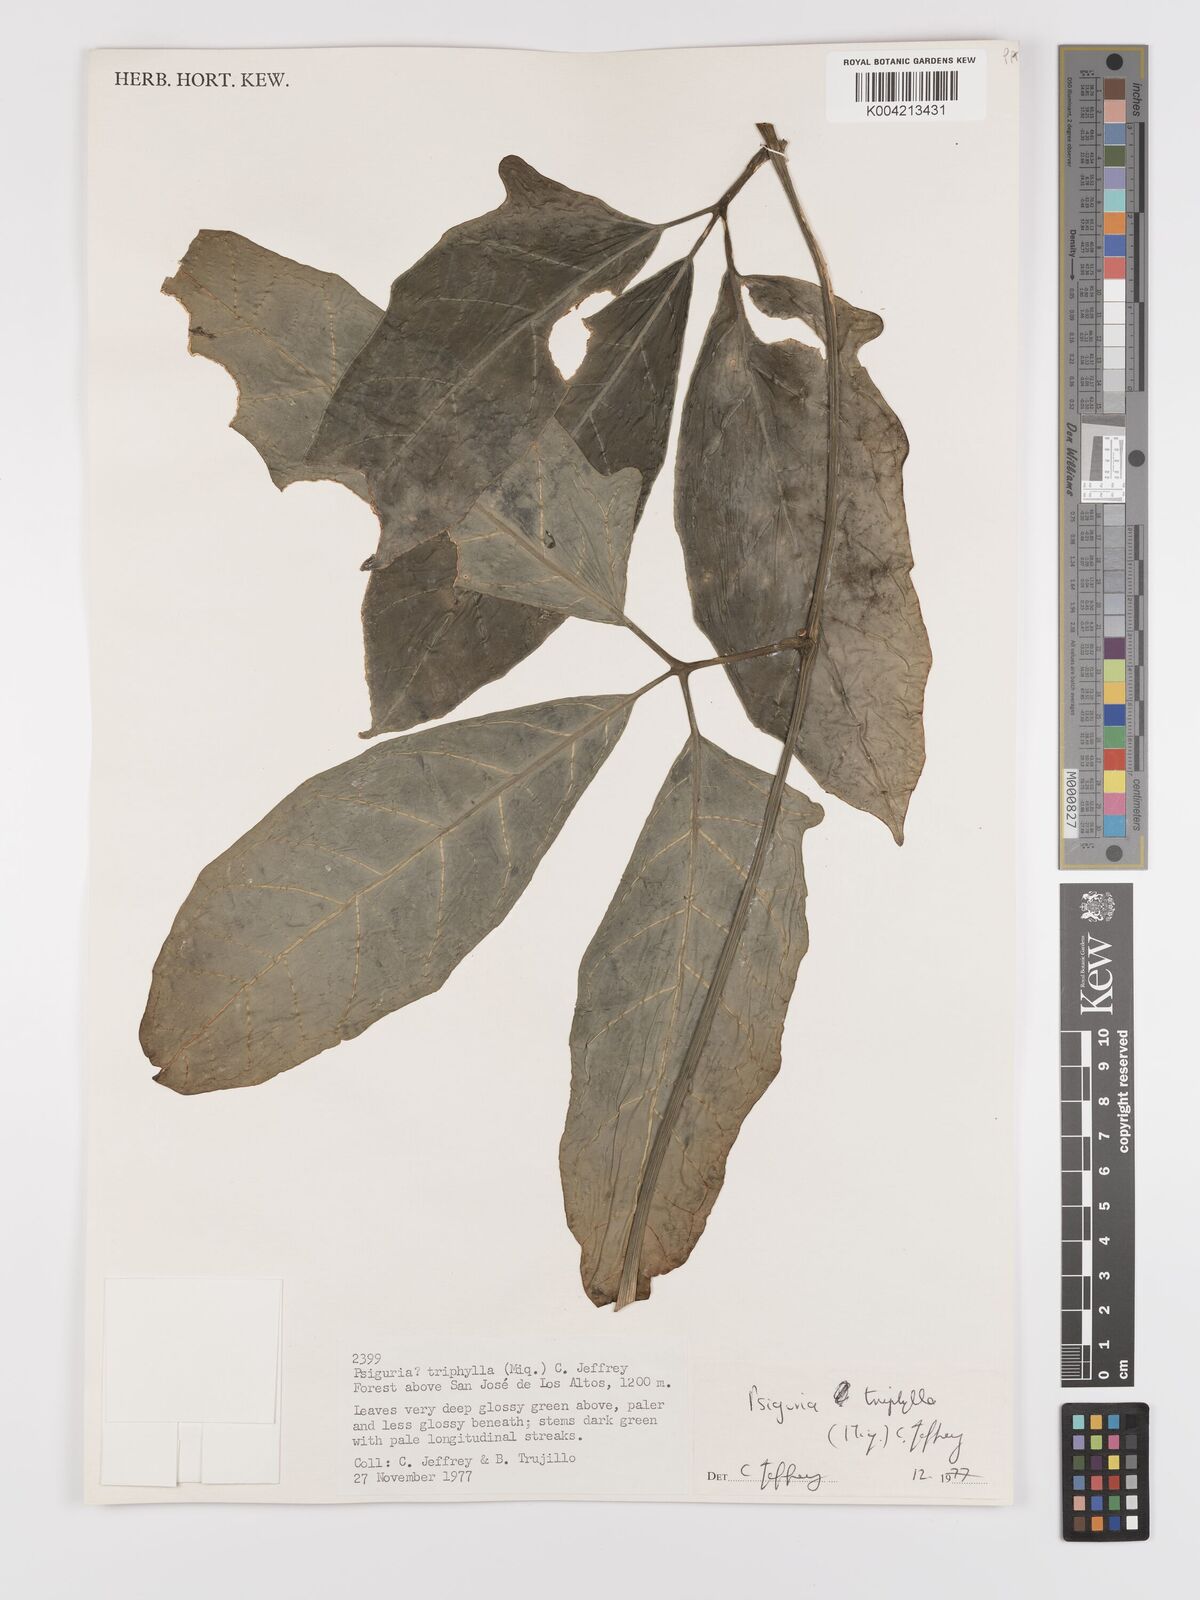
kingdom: Plantae
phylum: Tracheophyta
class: Magnoliopsida
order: Cucurbitales
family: Cucurbitaceae
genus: Psiguria
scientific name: Psiguria triphylla
